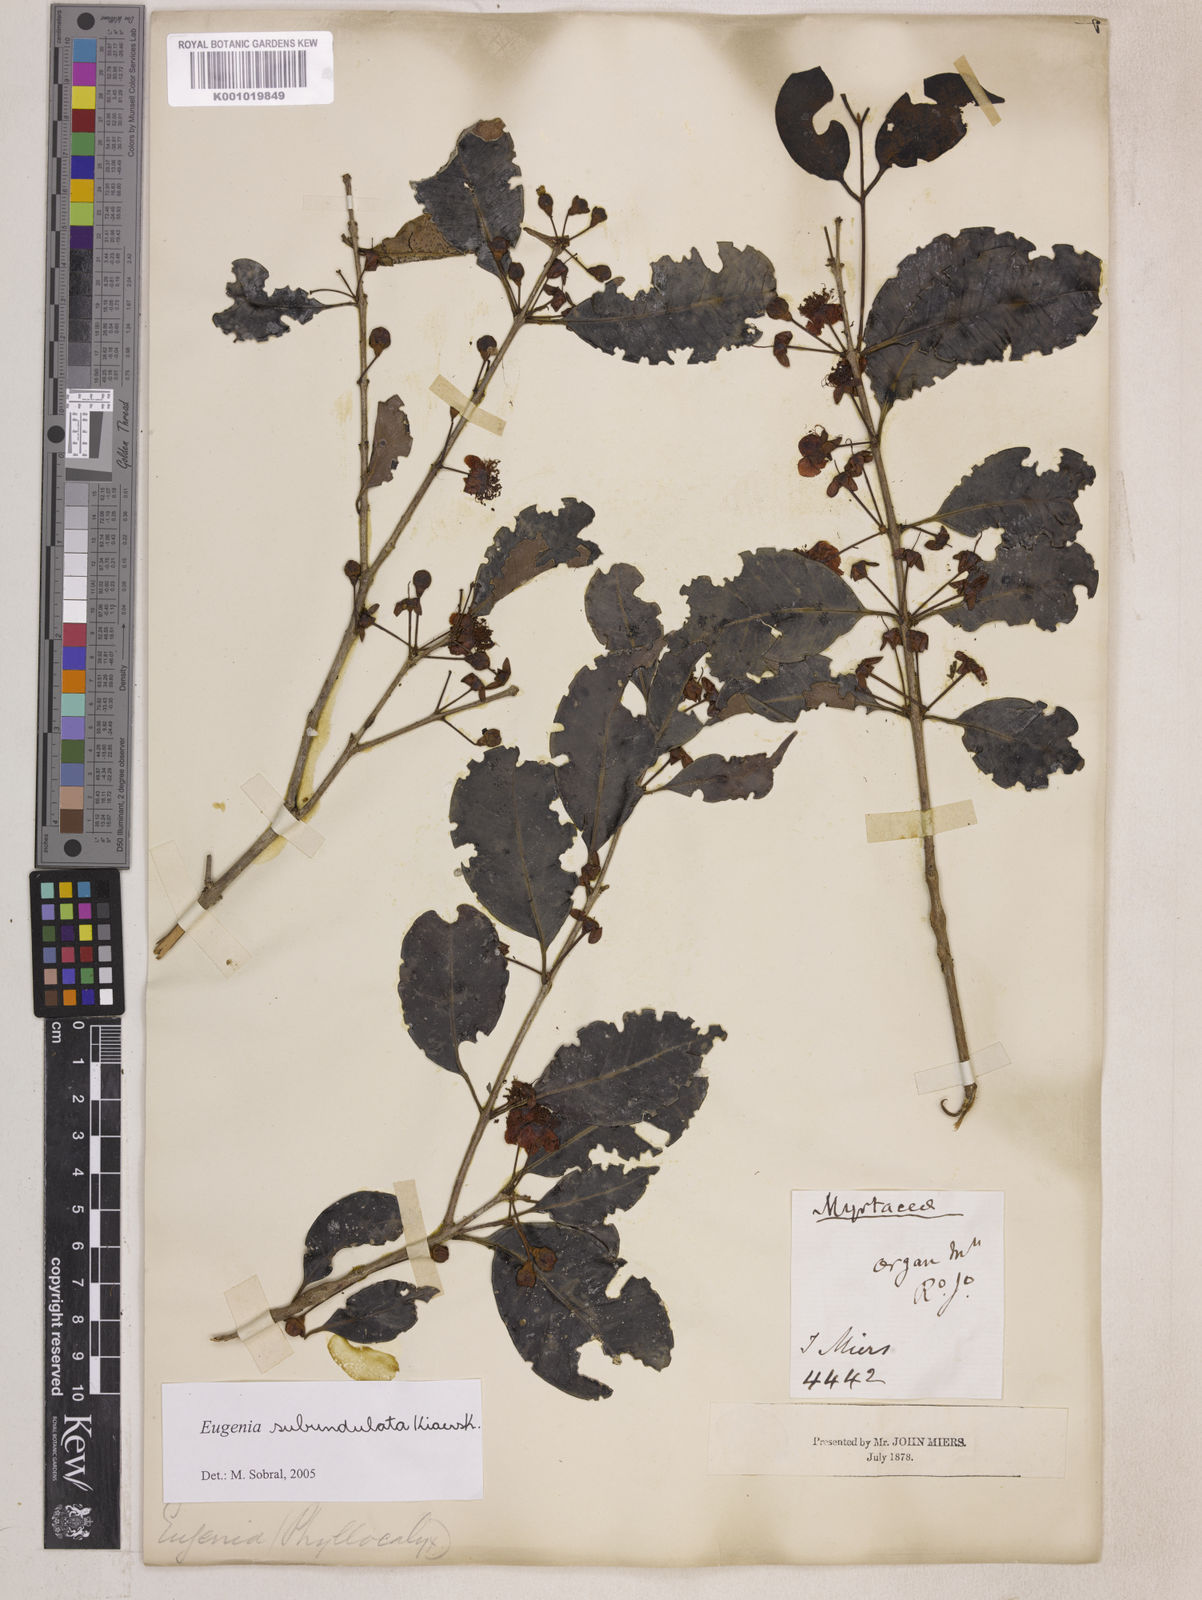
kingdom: Plantae
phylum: Tracheophyta
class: Magnoliopsida
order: Myrtales
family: Myrtaceae
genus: Eugenia
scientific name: Eugenia subundulata
